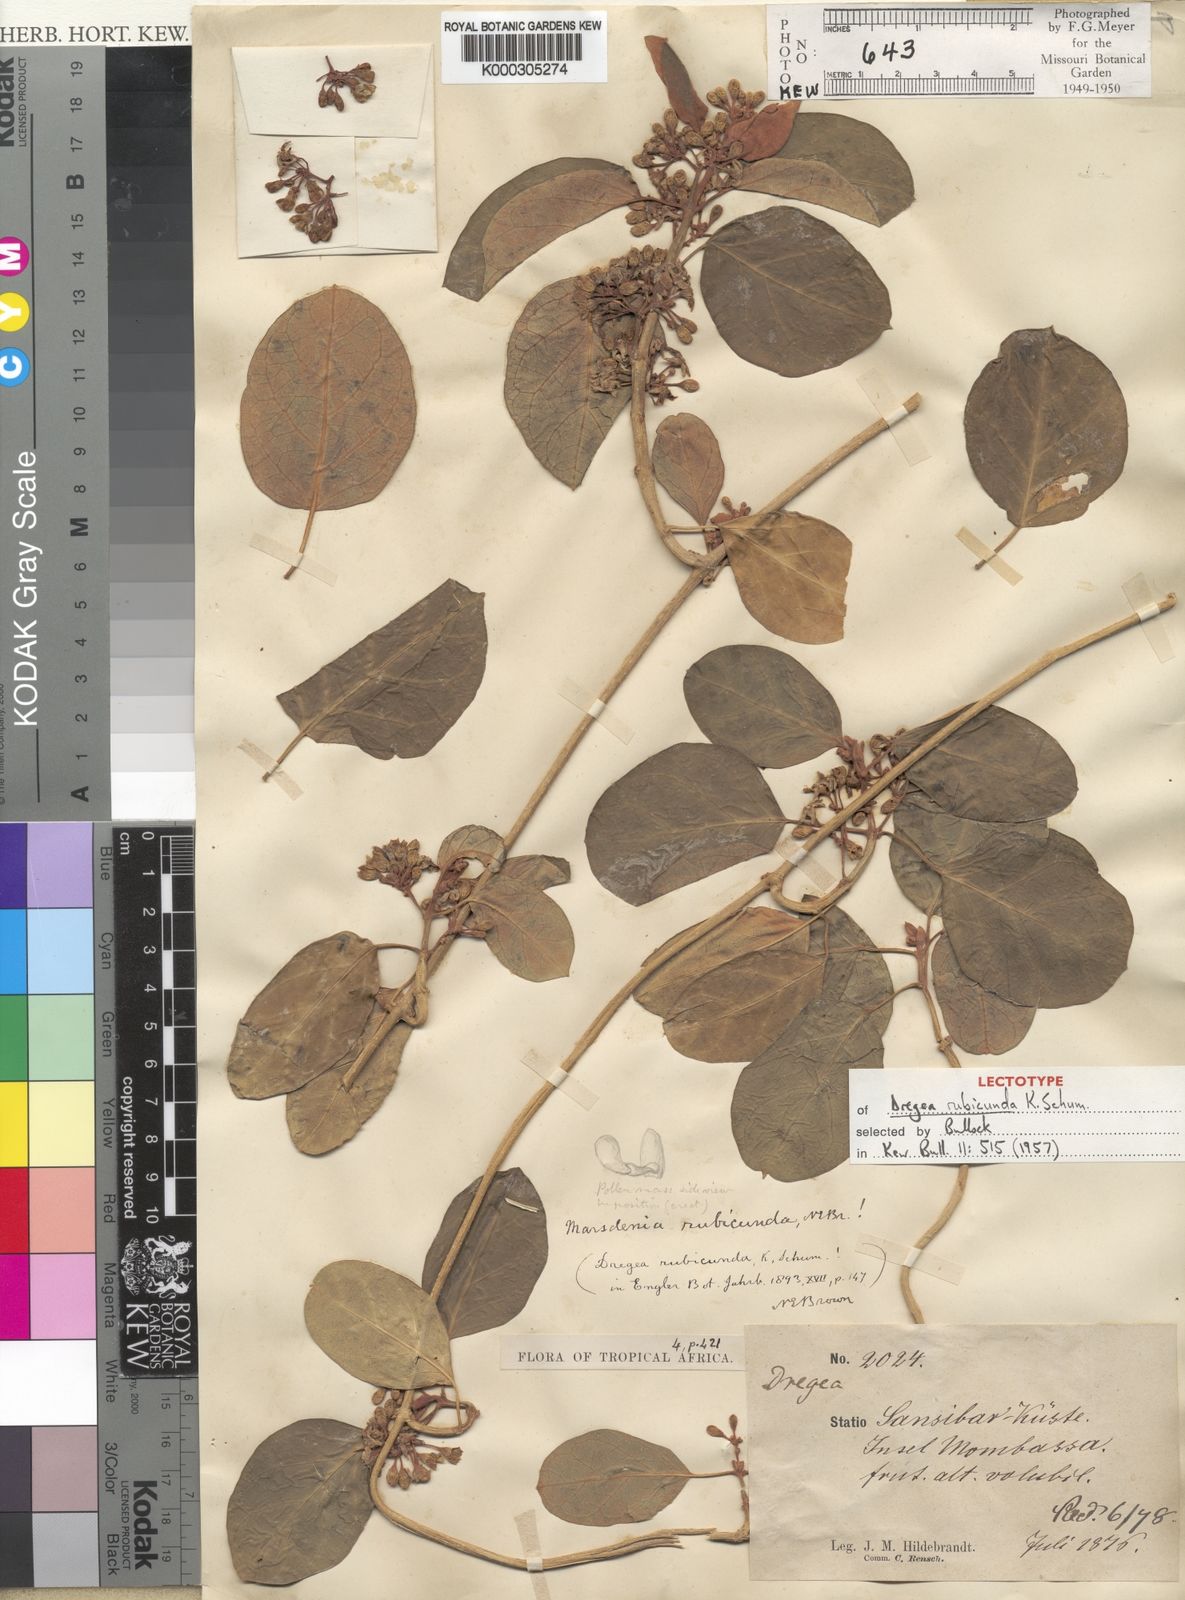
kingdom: Plantae
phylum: Tracheophyta
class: Magnoliopsida
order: Gentianales
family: Apocynaceae
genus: Stephanotis
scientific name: Stephanotis rubicunda
